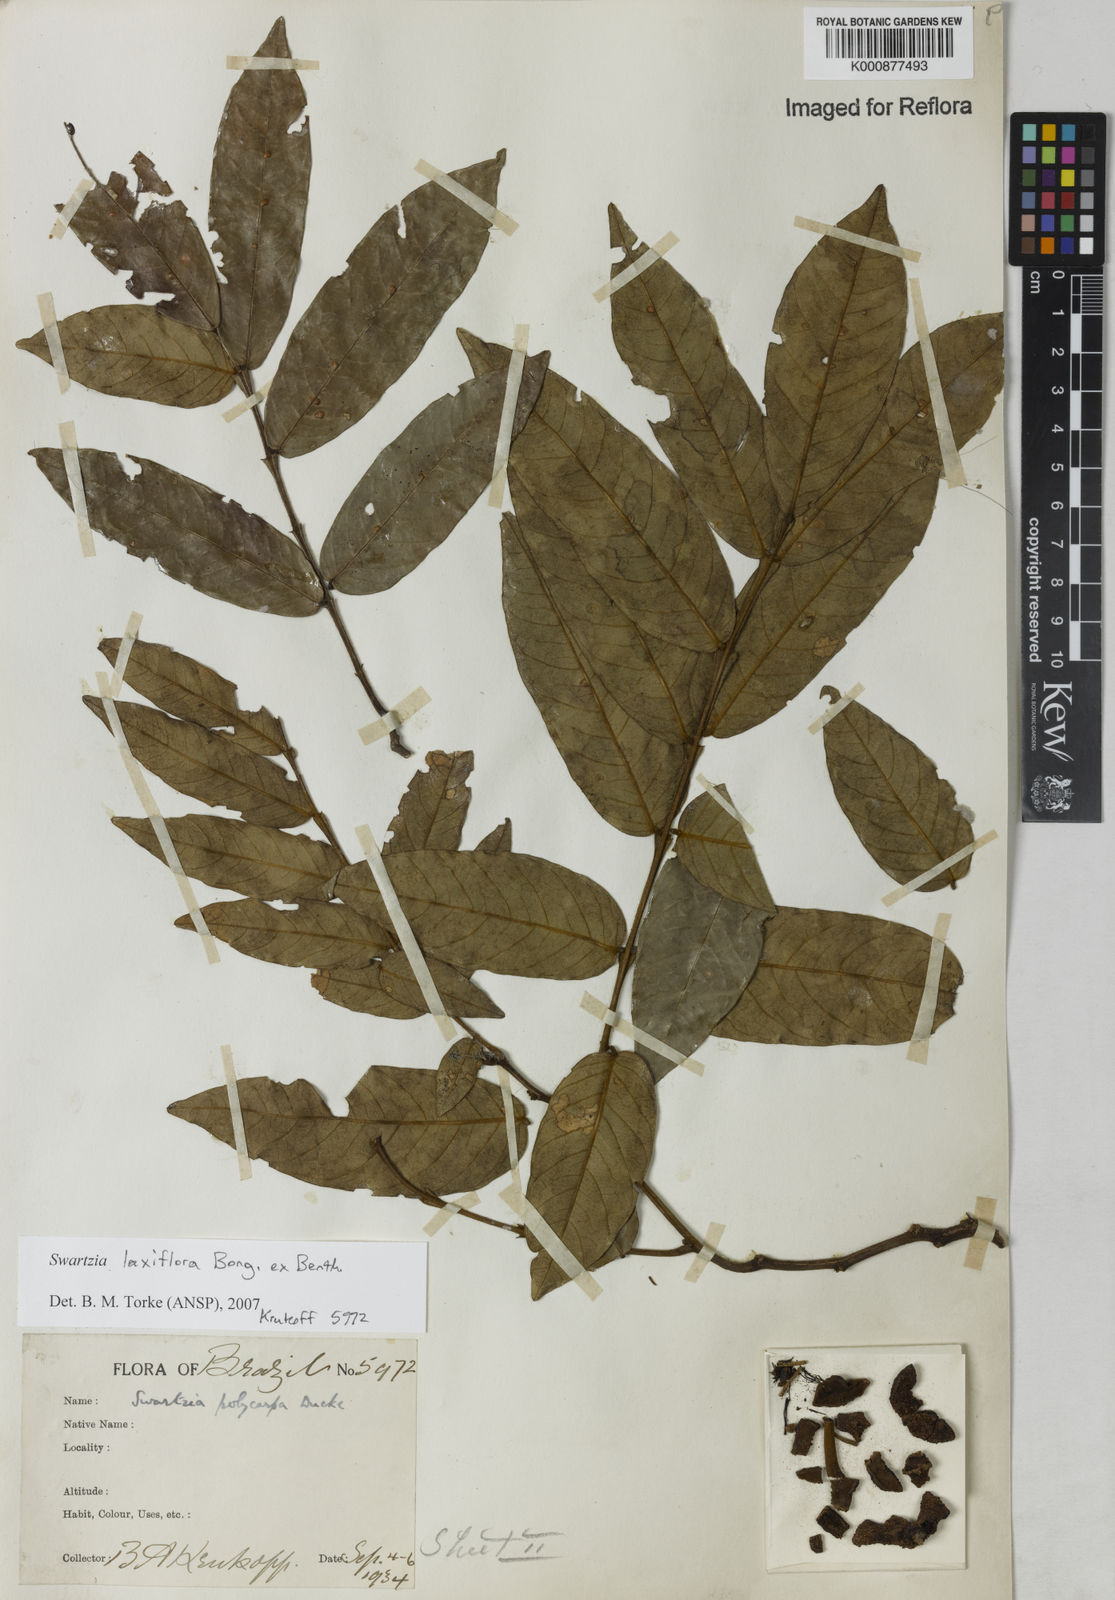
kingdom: Plantae
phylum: Tracheophyta
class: Magnoliopsida
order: Fabales
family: Fabaceae
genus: Swartzia
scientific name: Swartzia laxiflora
